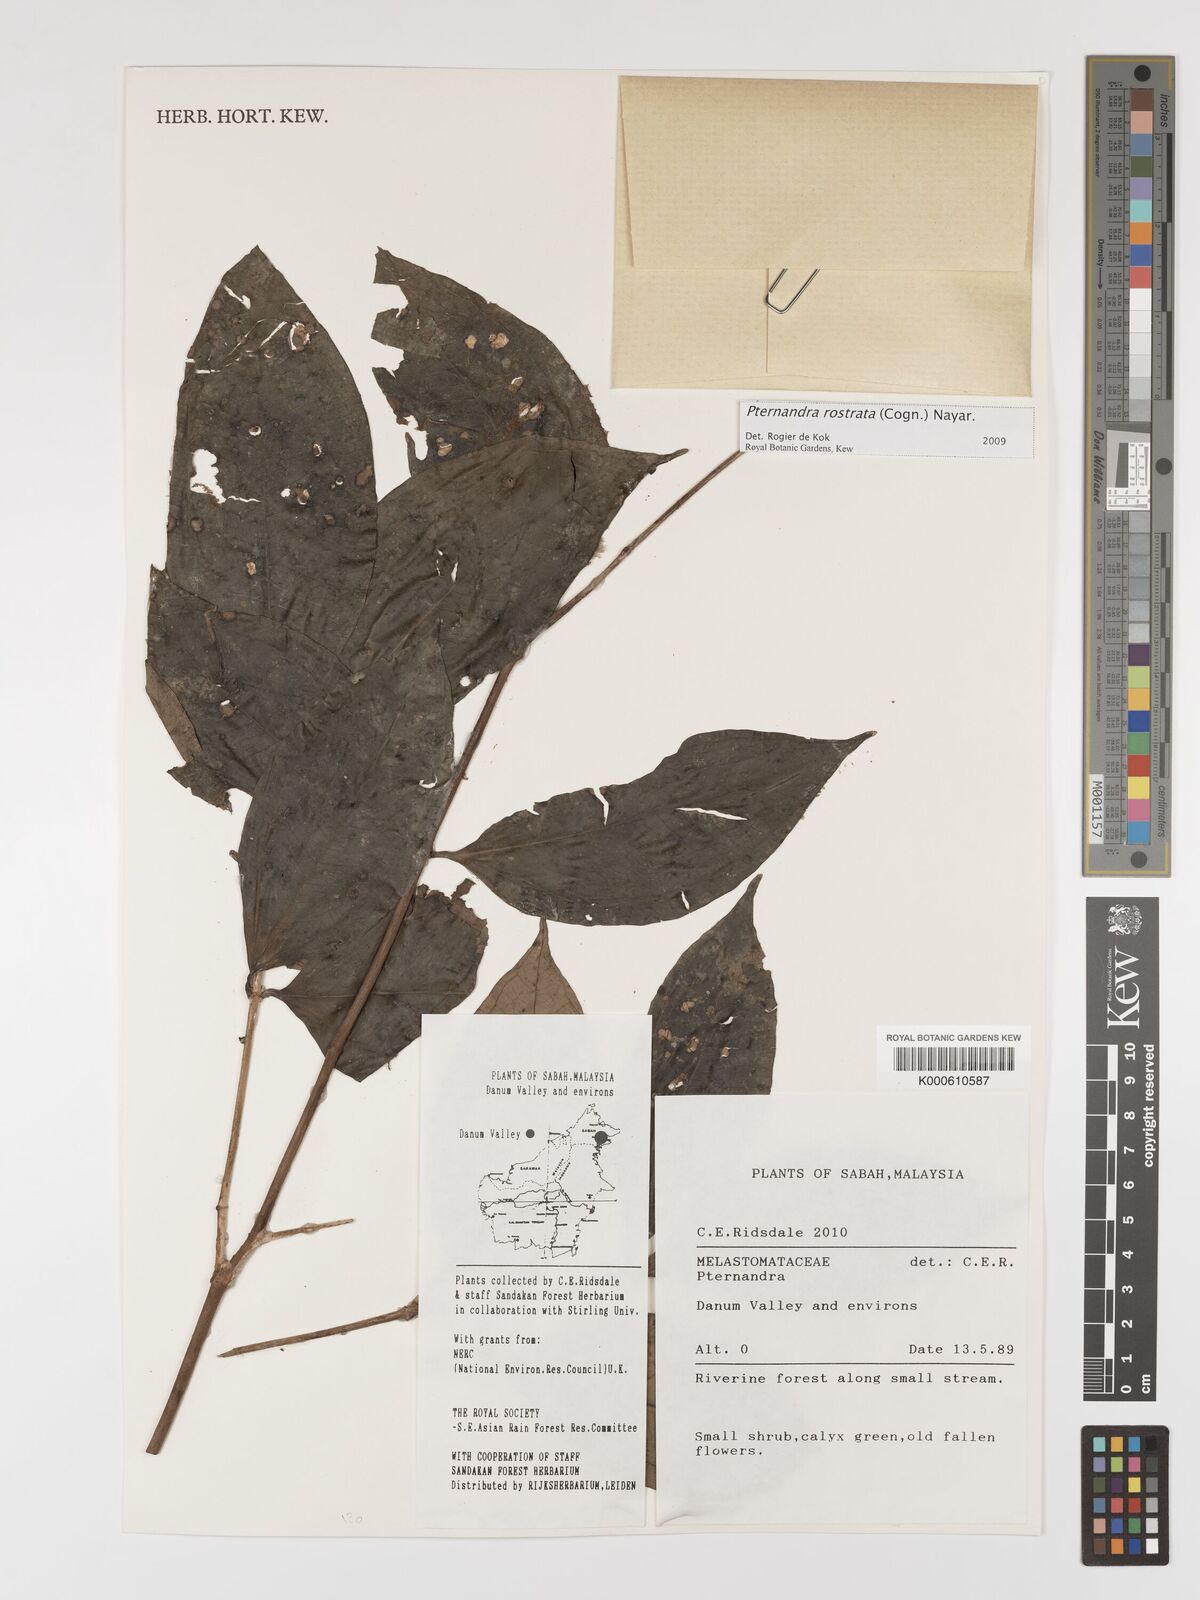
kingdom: Plantae
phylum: Tracheophyta
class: Magnoliopsida
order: Myrtales
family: Melastomataceae
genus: Pternandra
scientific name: Pternandra rostrata
